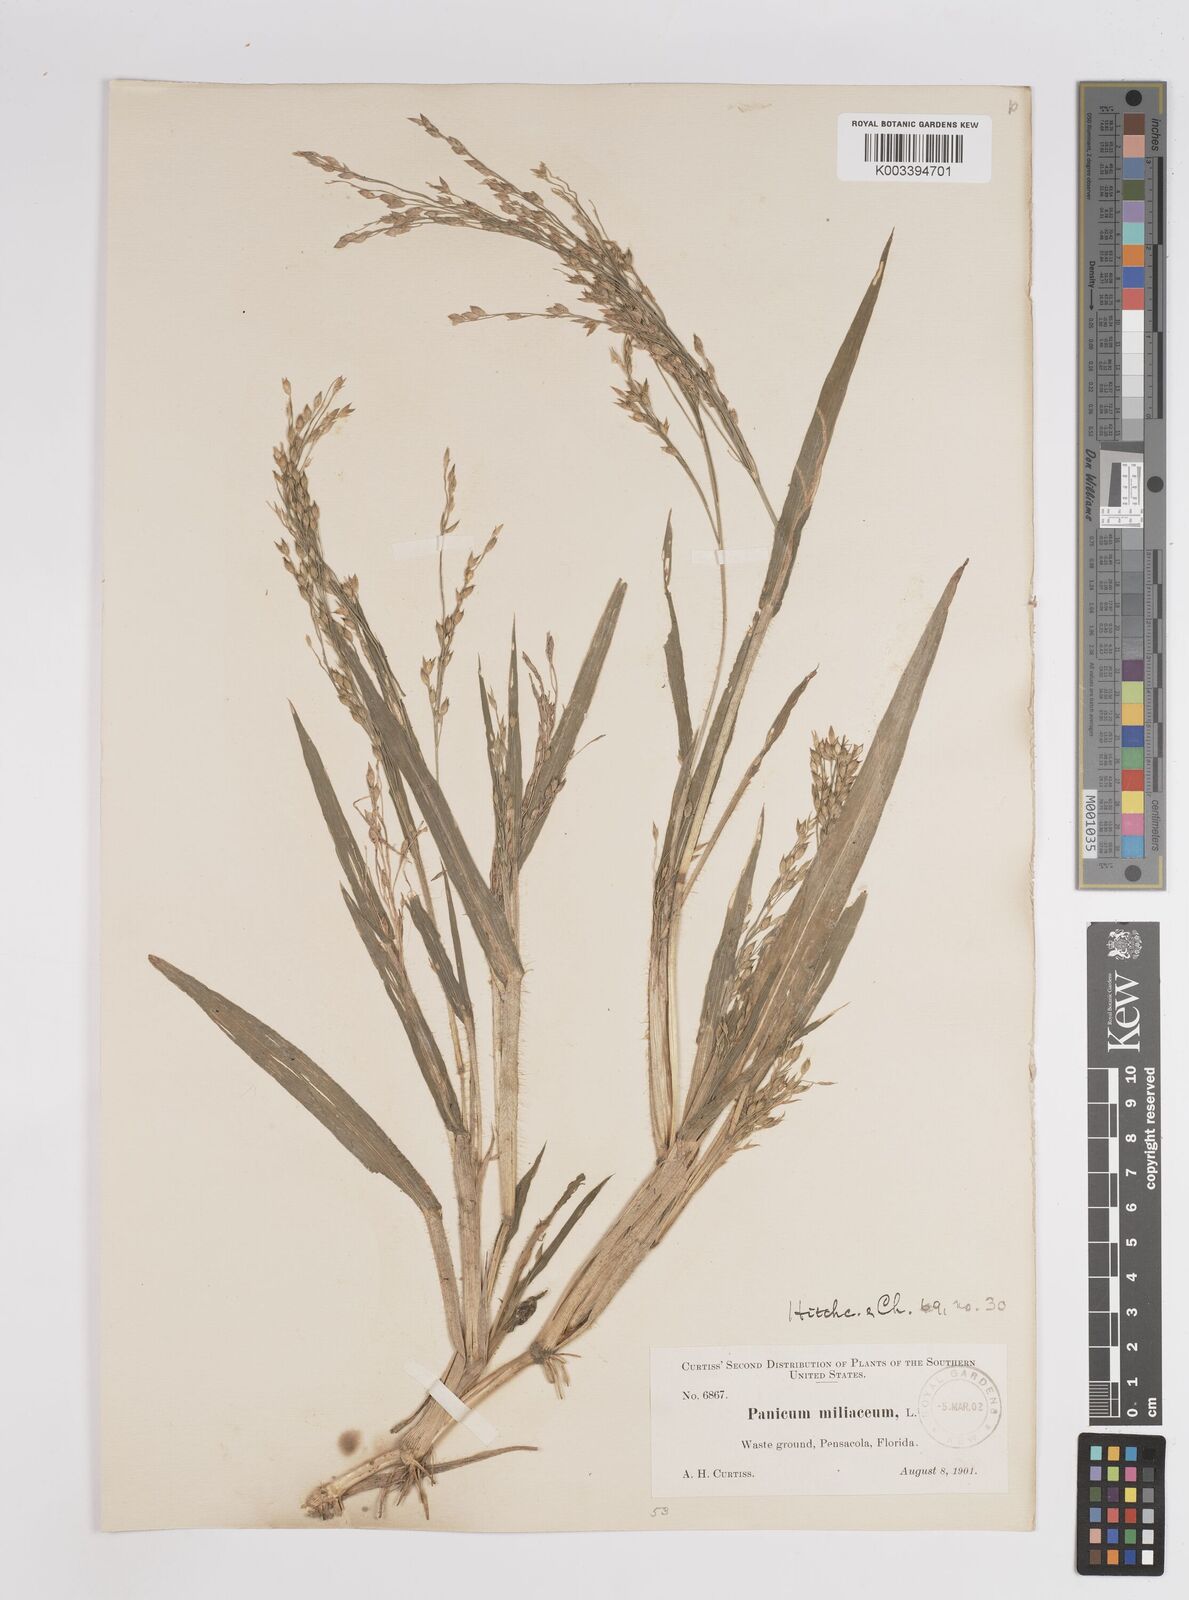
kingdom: Plantae
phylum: Tracheophyta
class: Liliopsida
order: Poales
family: Poaceae
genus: Panicum
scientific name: Panicum miliaceum
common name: Common millet
